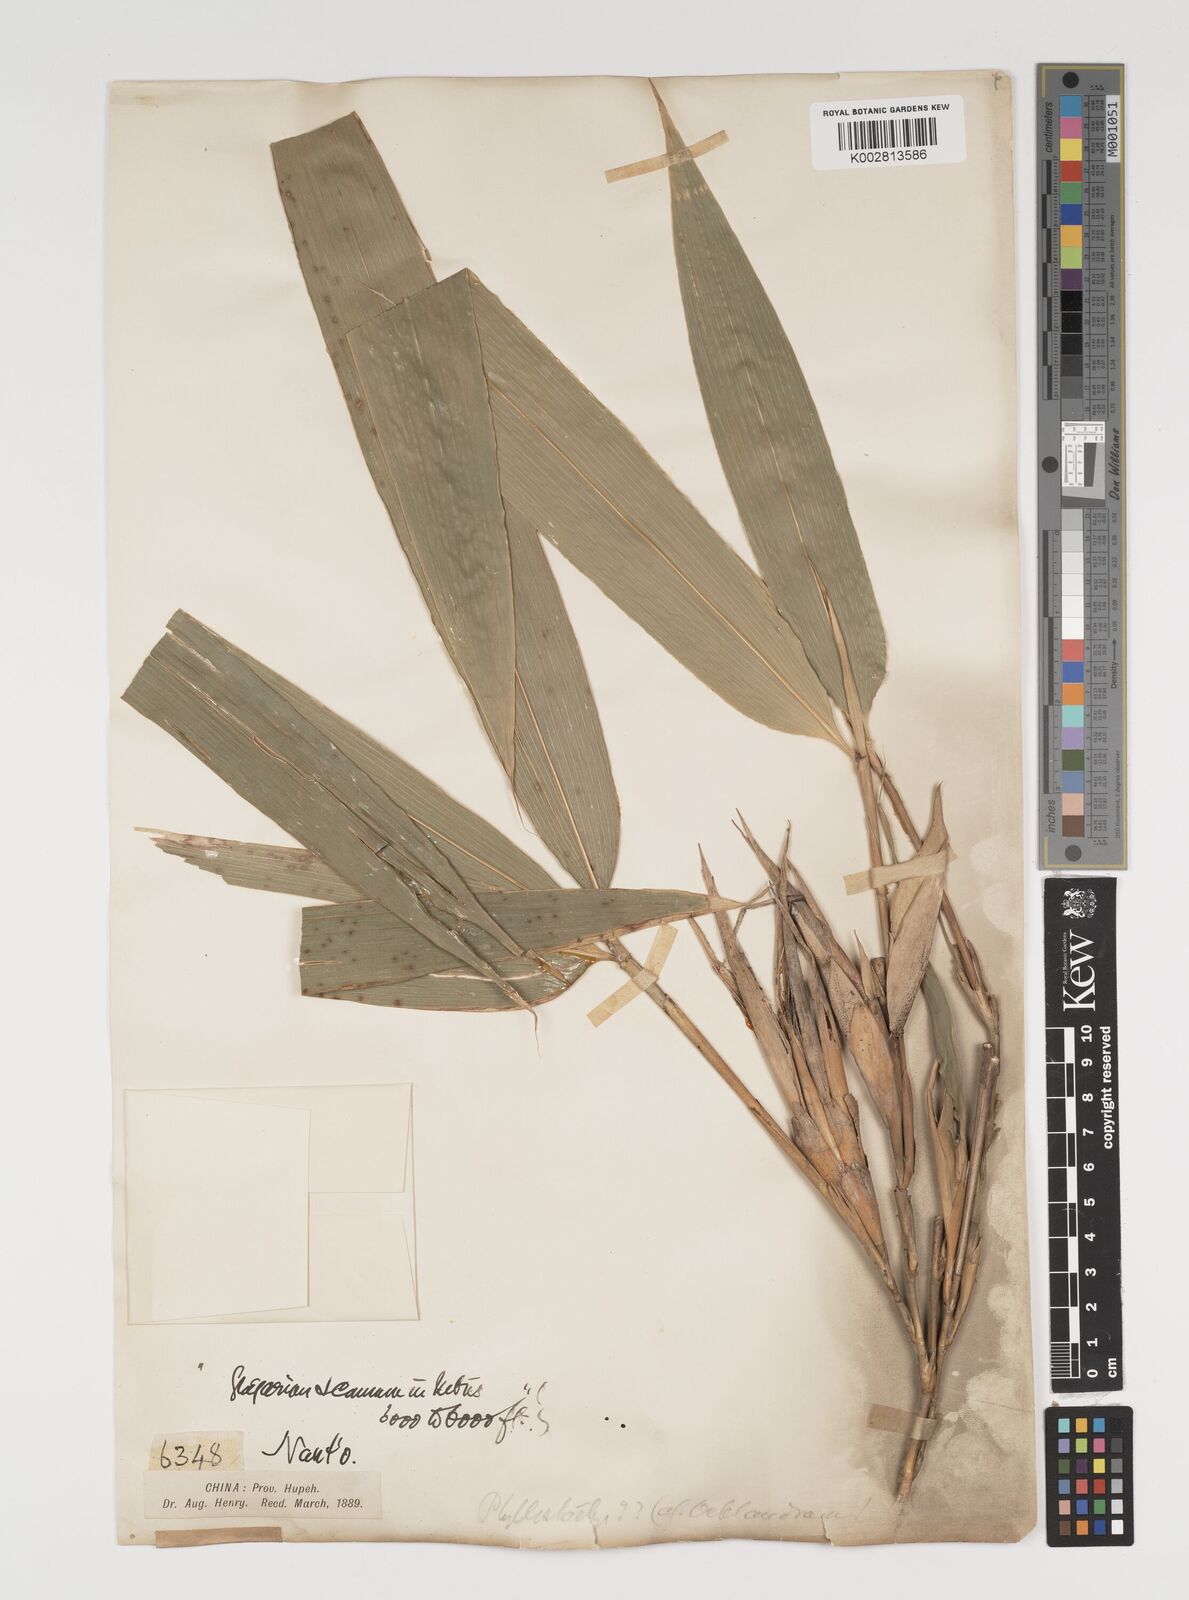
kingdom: Plantae
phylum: Tracheophyta
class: Liliopsida
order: Poales
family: Poaceae
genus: Indocalamus
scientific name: Indocalamus longiauritus
